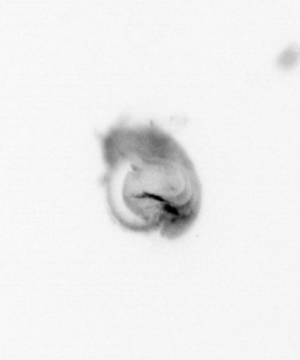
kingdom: Animalia
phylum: Annelida
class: Polychaeta
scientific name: Polychaeta
